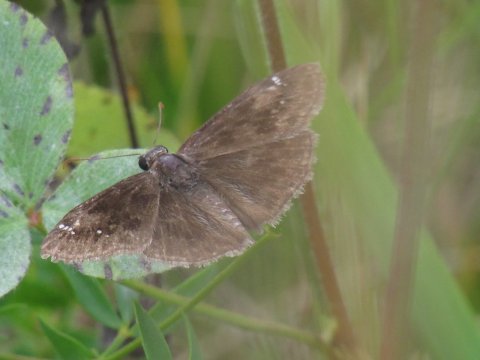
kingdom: Animalia
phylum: Arthropoda
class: Insecta
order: Lepidoptera
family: Hesperiidae
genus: Gesta
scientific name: Gesta
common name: Wild Indigo Duskywing
